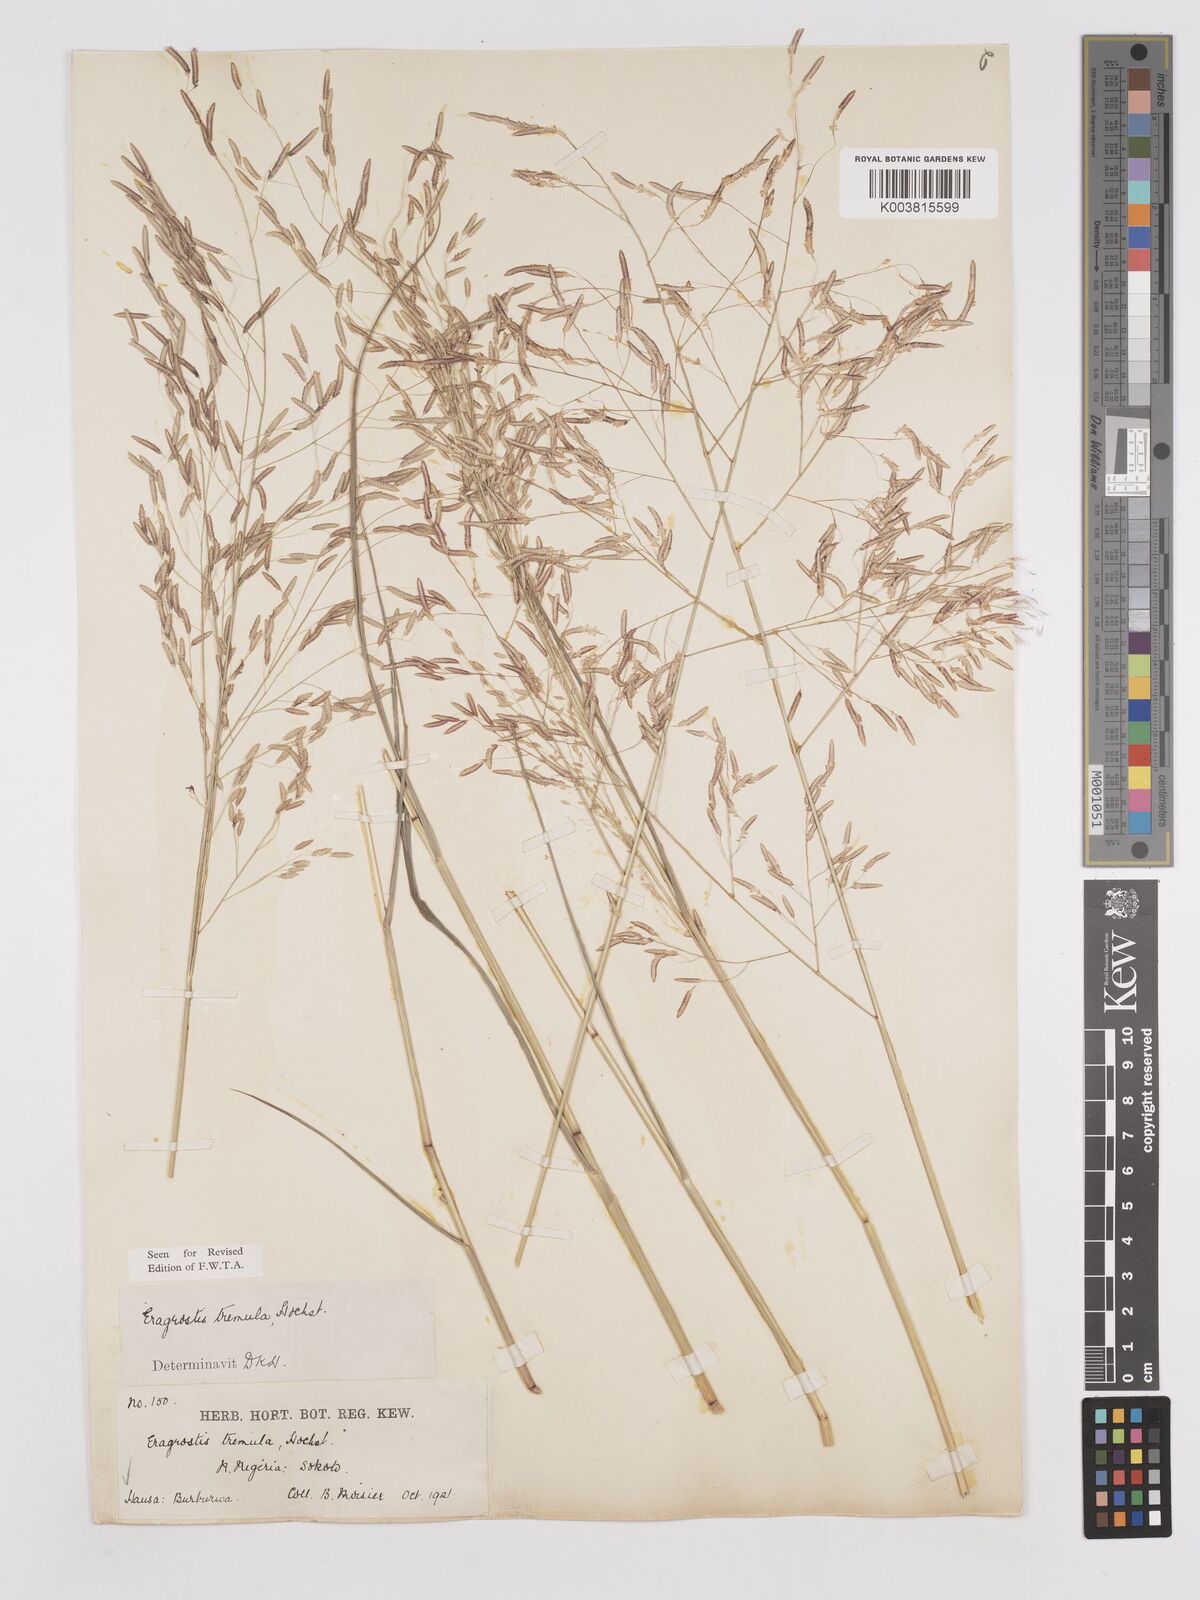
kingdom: Plantae
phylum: Tracheophyta
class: Liliopsida
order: Poales
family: Poaceae
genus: Eragrostis
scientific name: Eragrostis tremula
